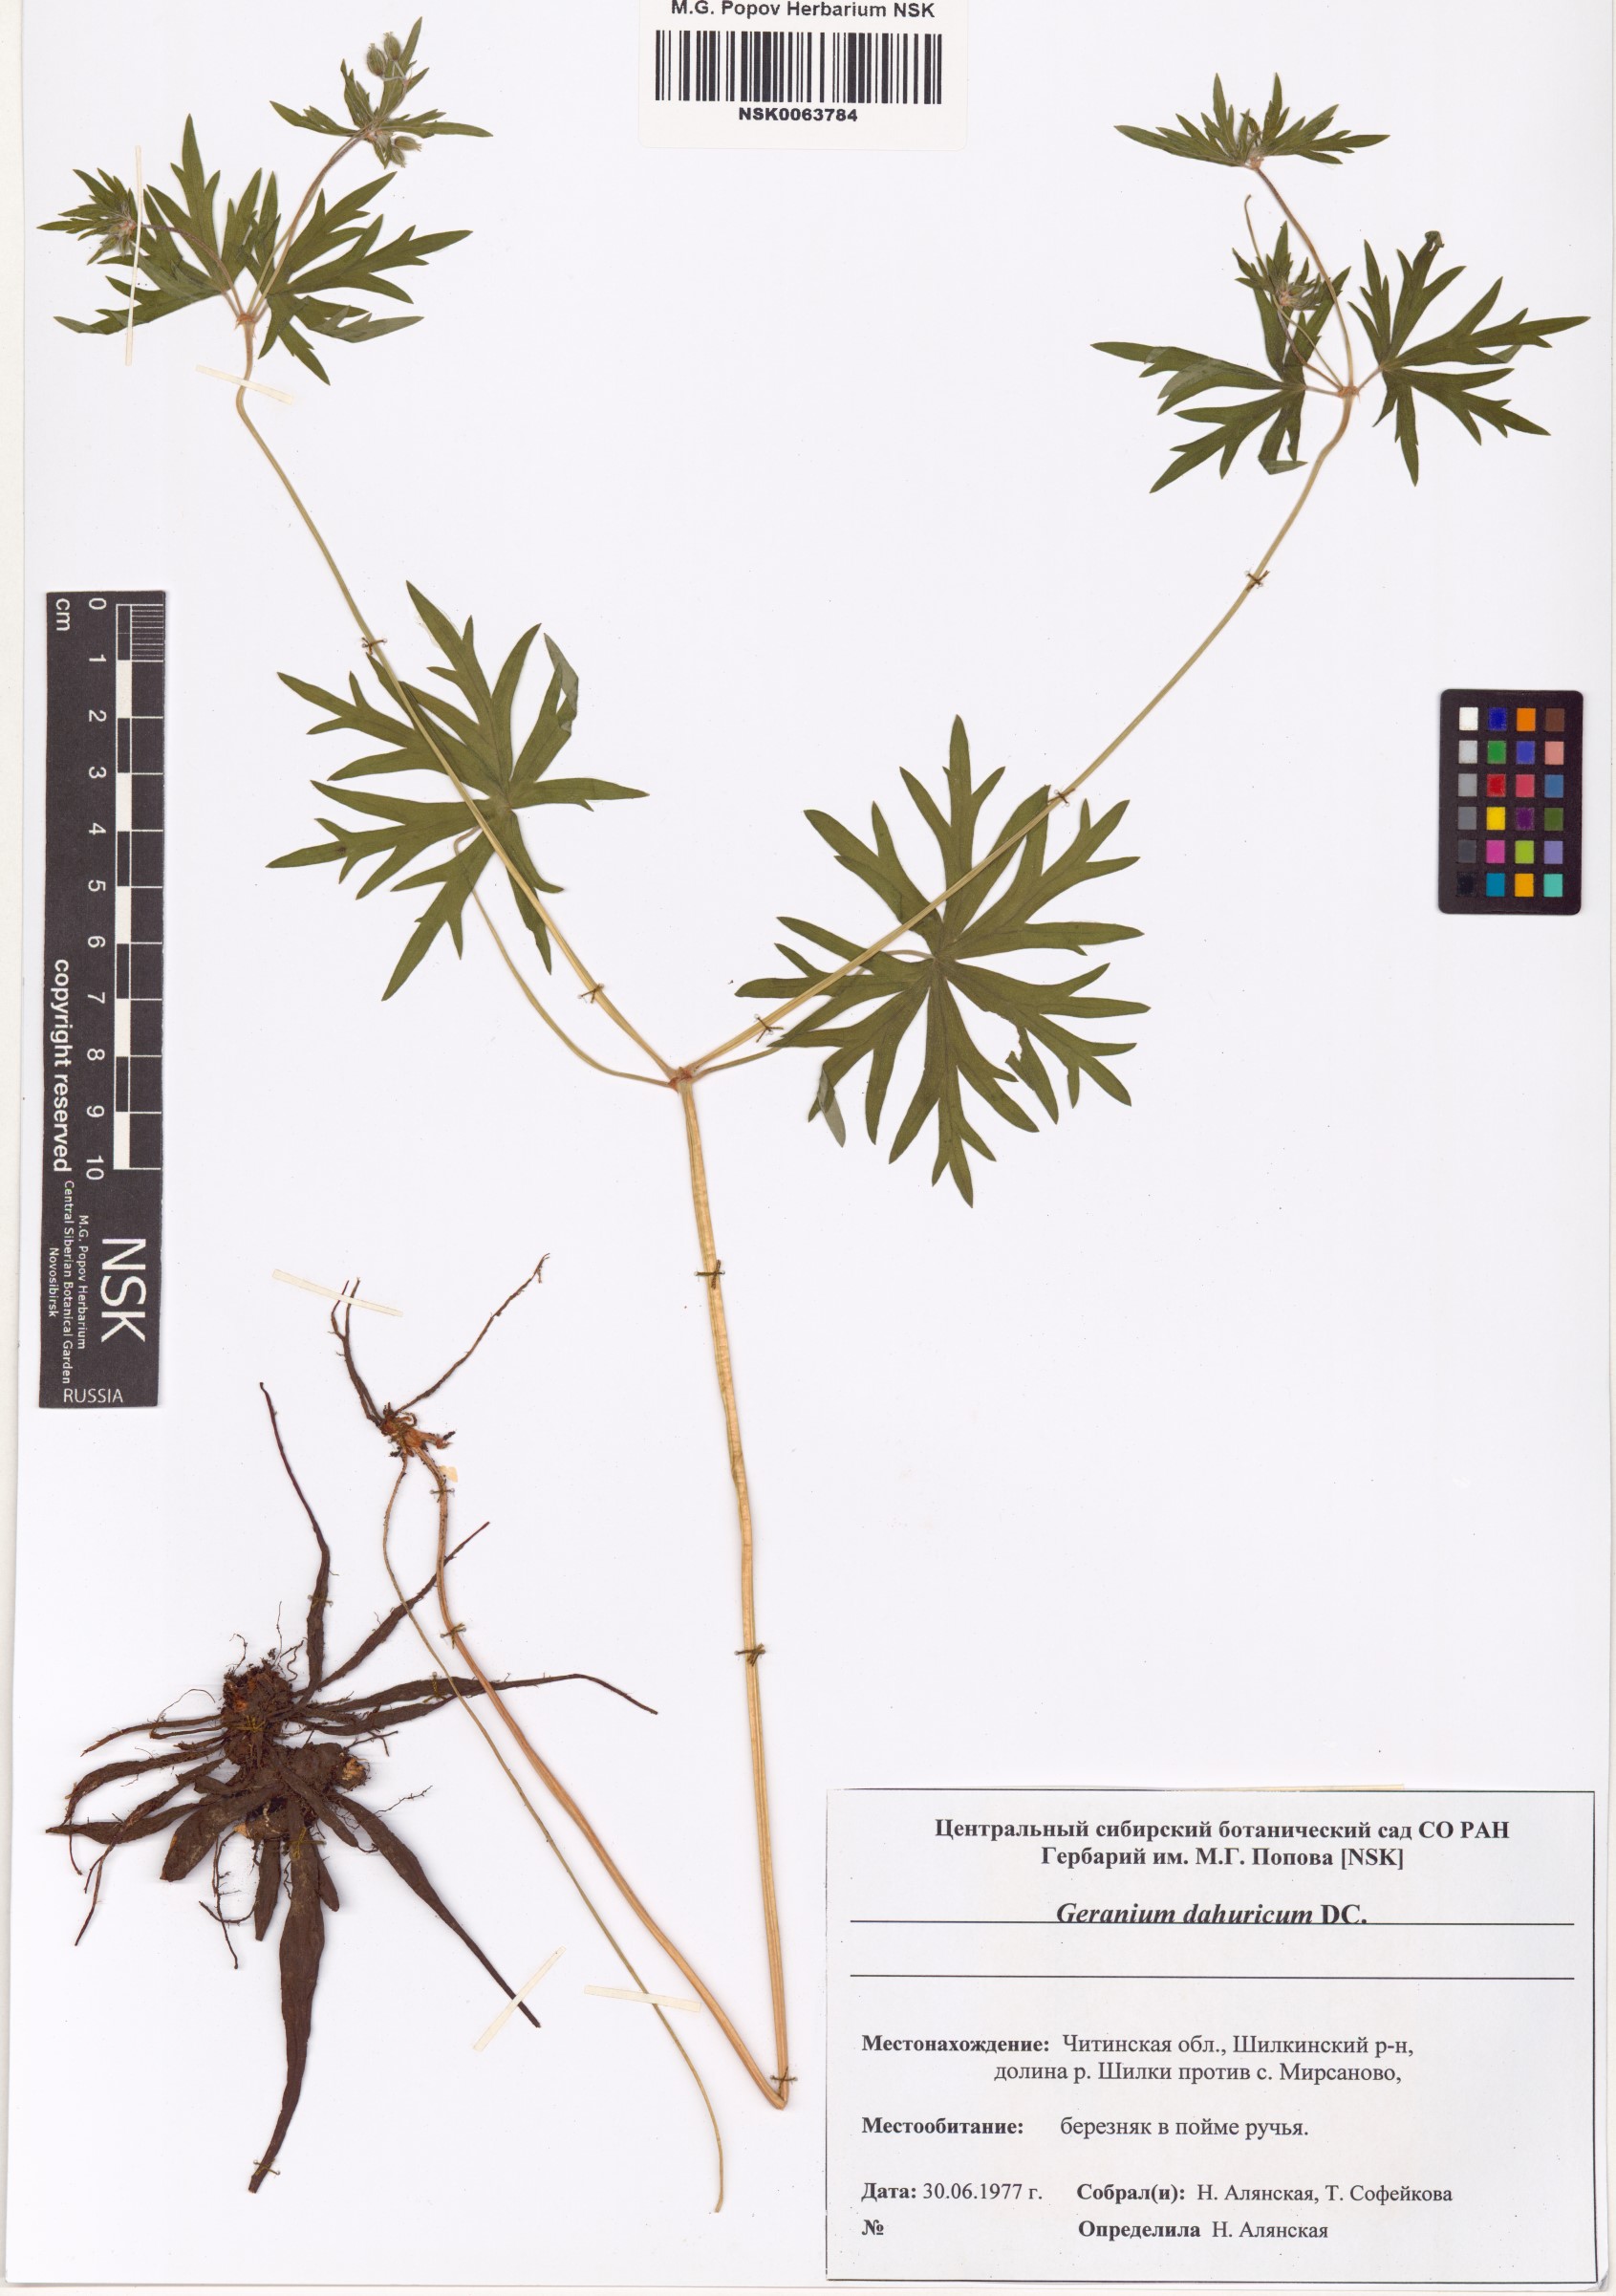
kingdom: Plantae
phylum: Tracheophyta
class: Magnoliopsida
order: Geraniales
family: Geraniaceae
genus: Geranium
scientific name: Geranium dahuricum
